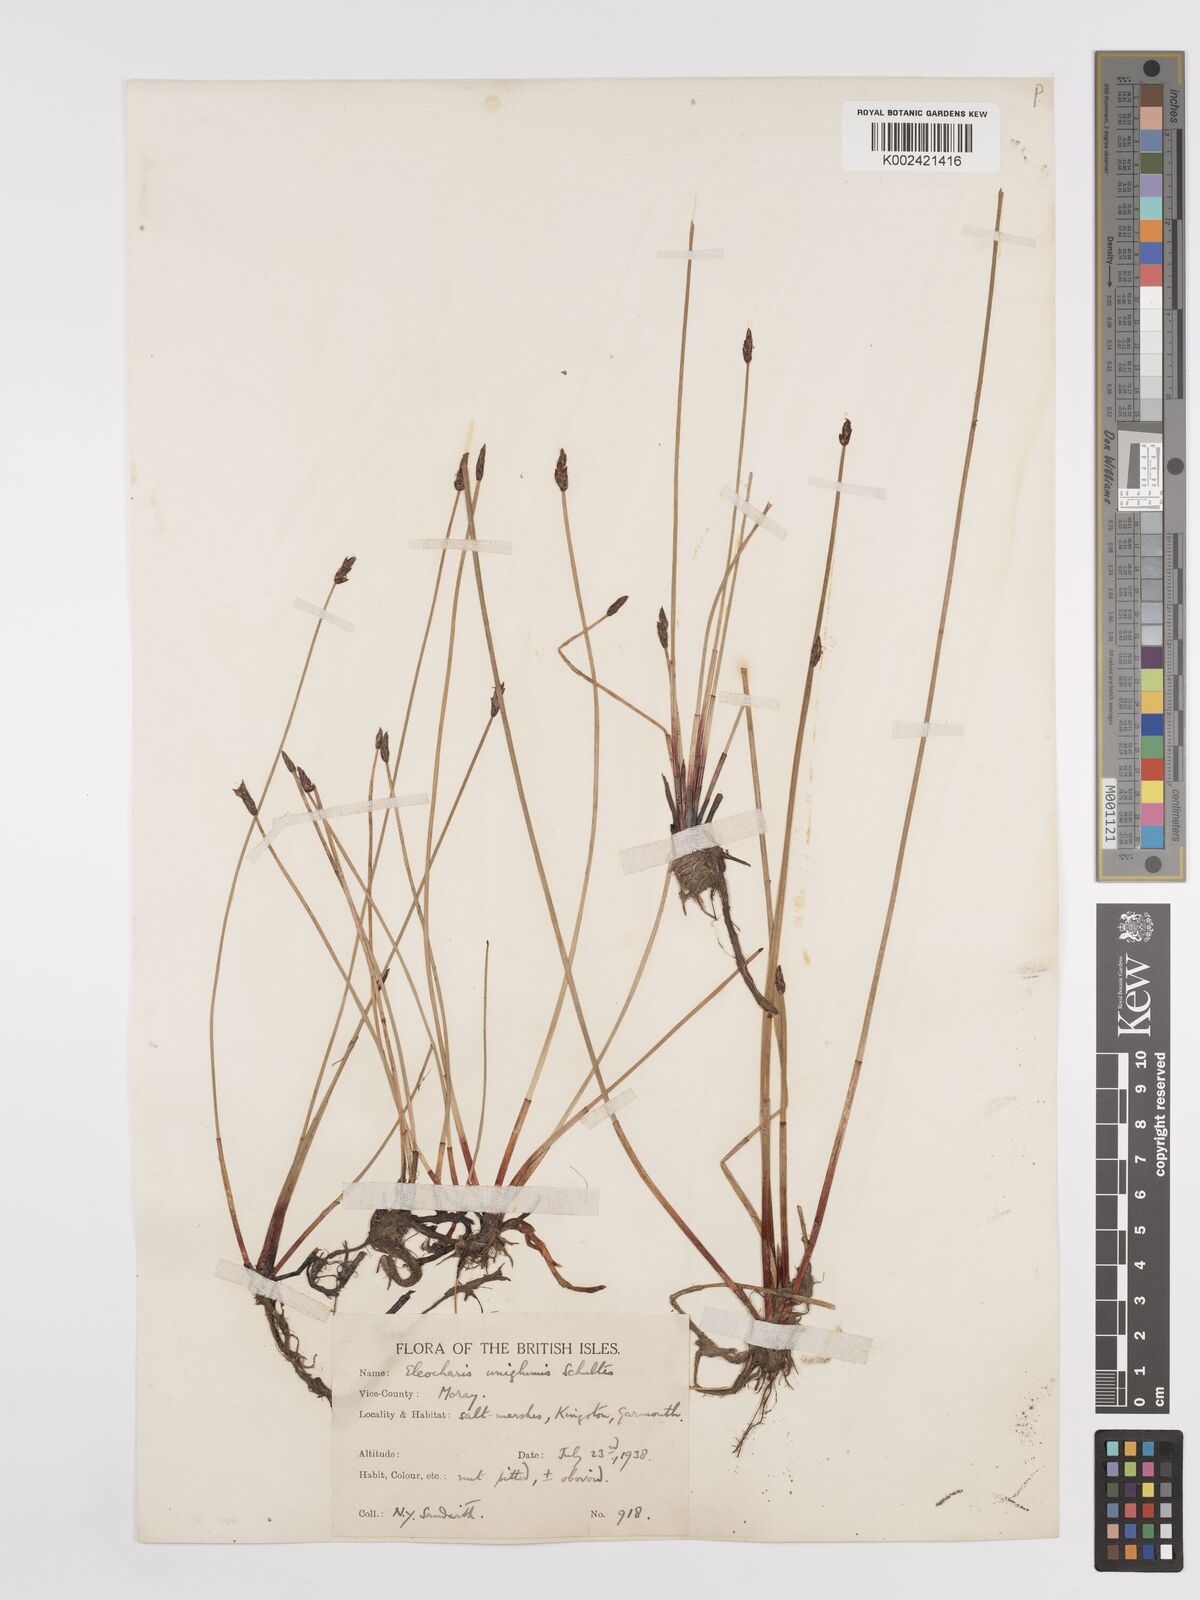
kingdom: Plantae
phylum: Tracheophyta
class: Liliopsida
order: Poales
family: Cyperaceae
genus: Eleocharis
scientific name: Eleocharis uniglumis
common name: Slender spike-rush
